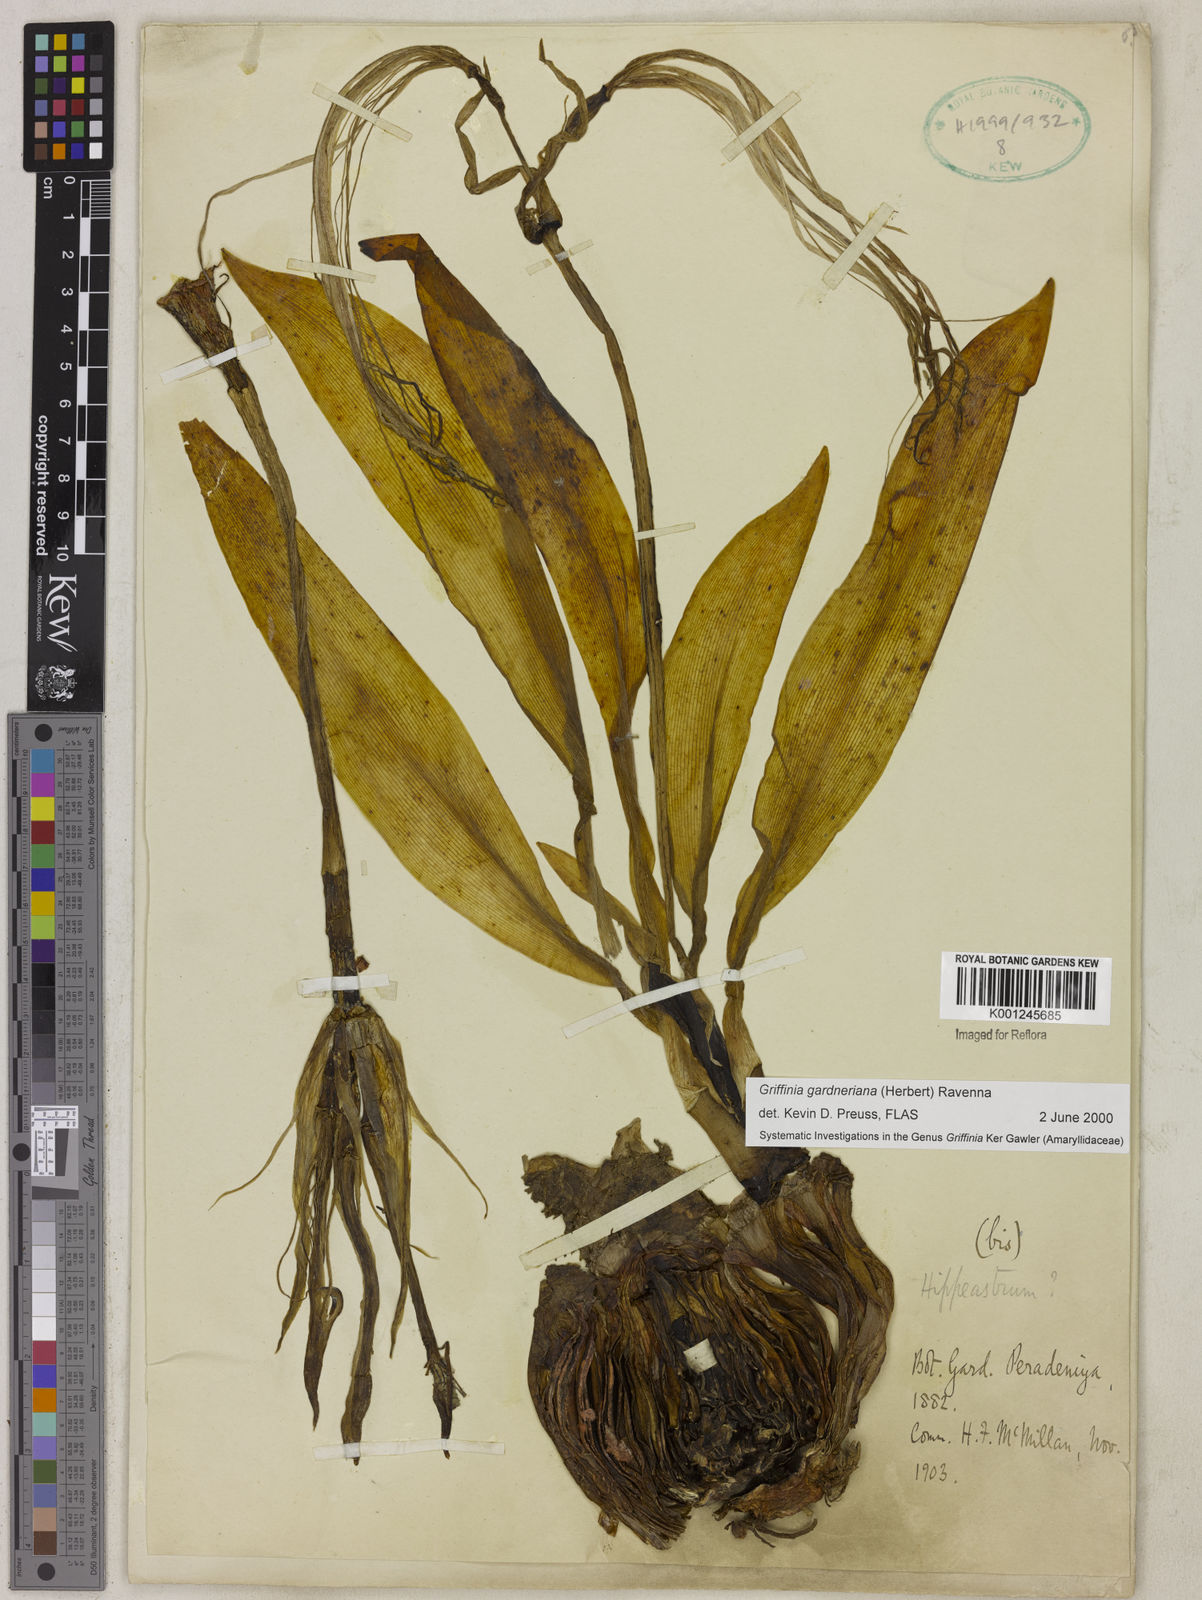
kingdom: Plantae
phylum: Tracheophyta
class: Liliopsida
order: Asparagales
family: Amaryllidaceae
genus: Griffinia
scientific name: Griffinia gardneriana
